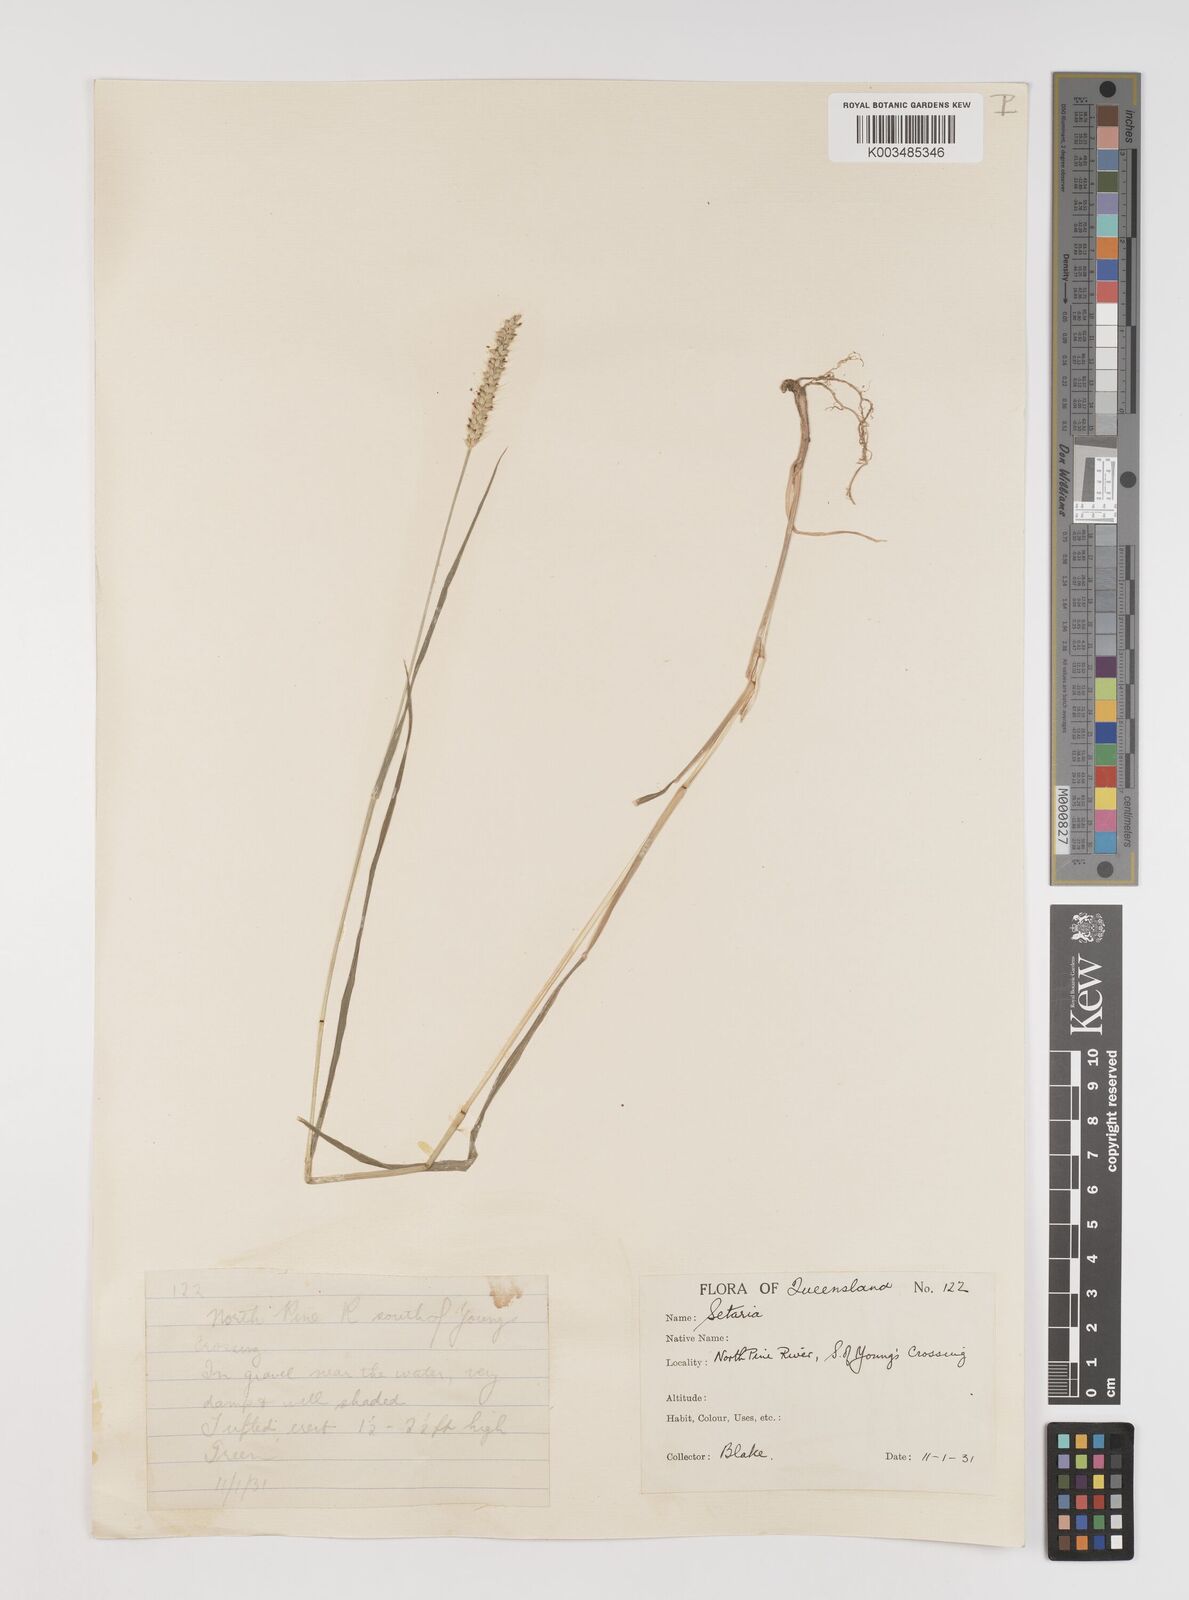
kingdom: Plantae
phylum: Tracheophyta
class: Liliopsida
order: Poales
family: Poaceae
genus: Setaria
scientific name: Setaria parviflora
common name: Knotroot bristle-grass
